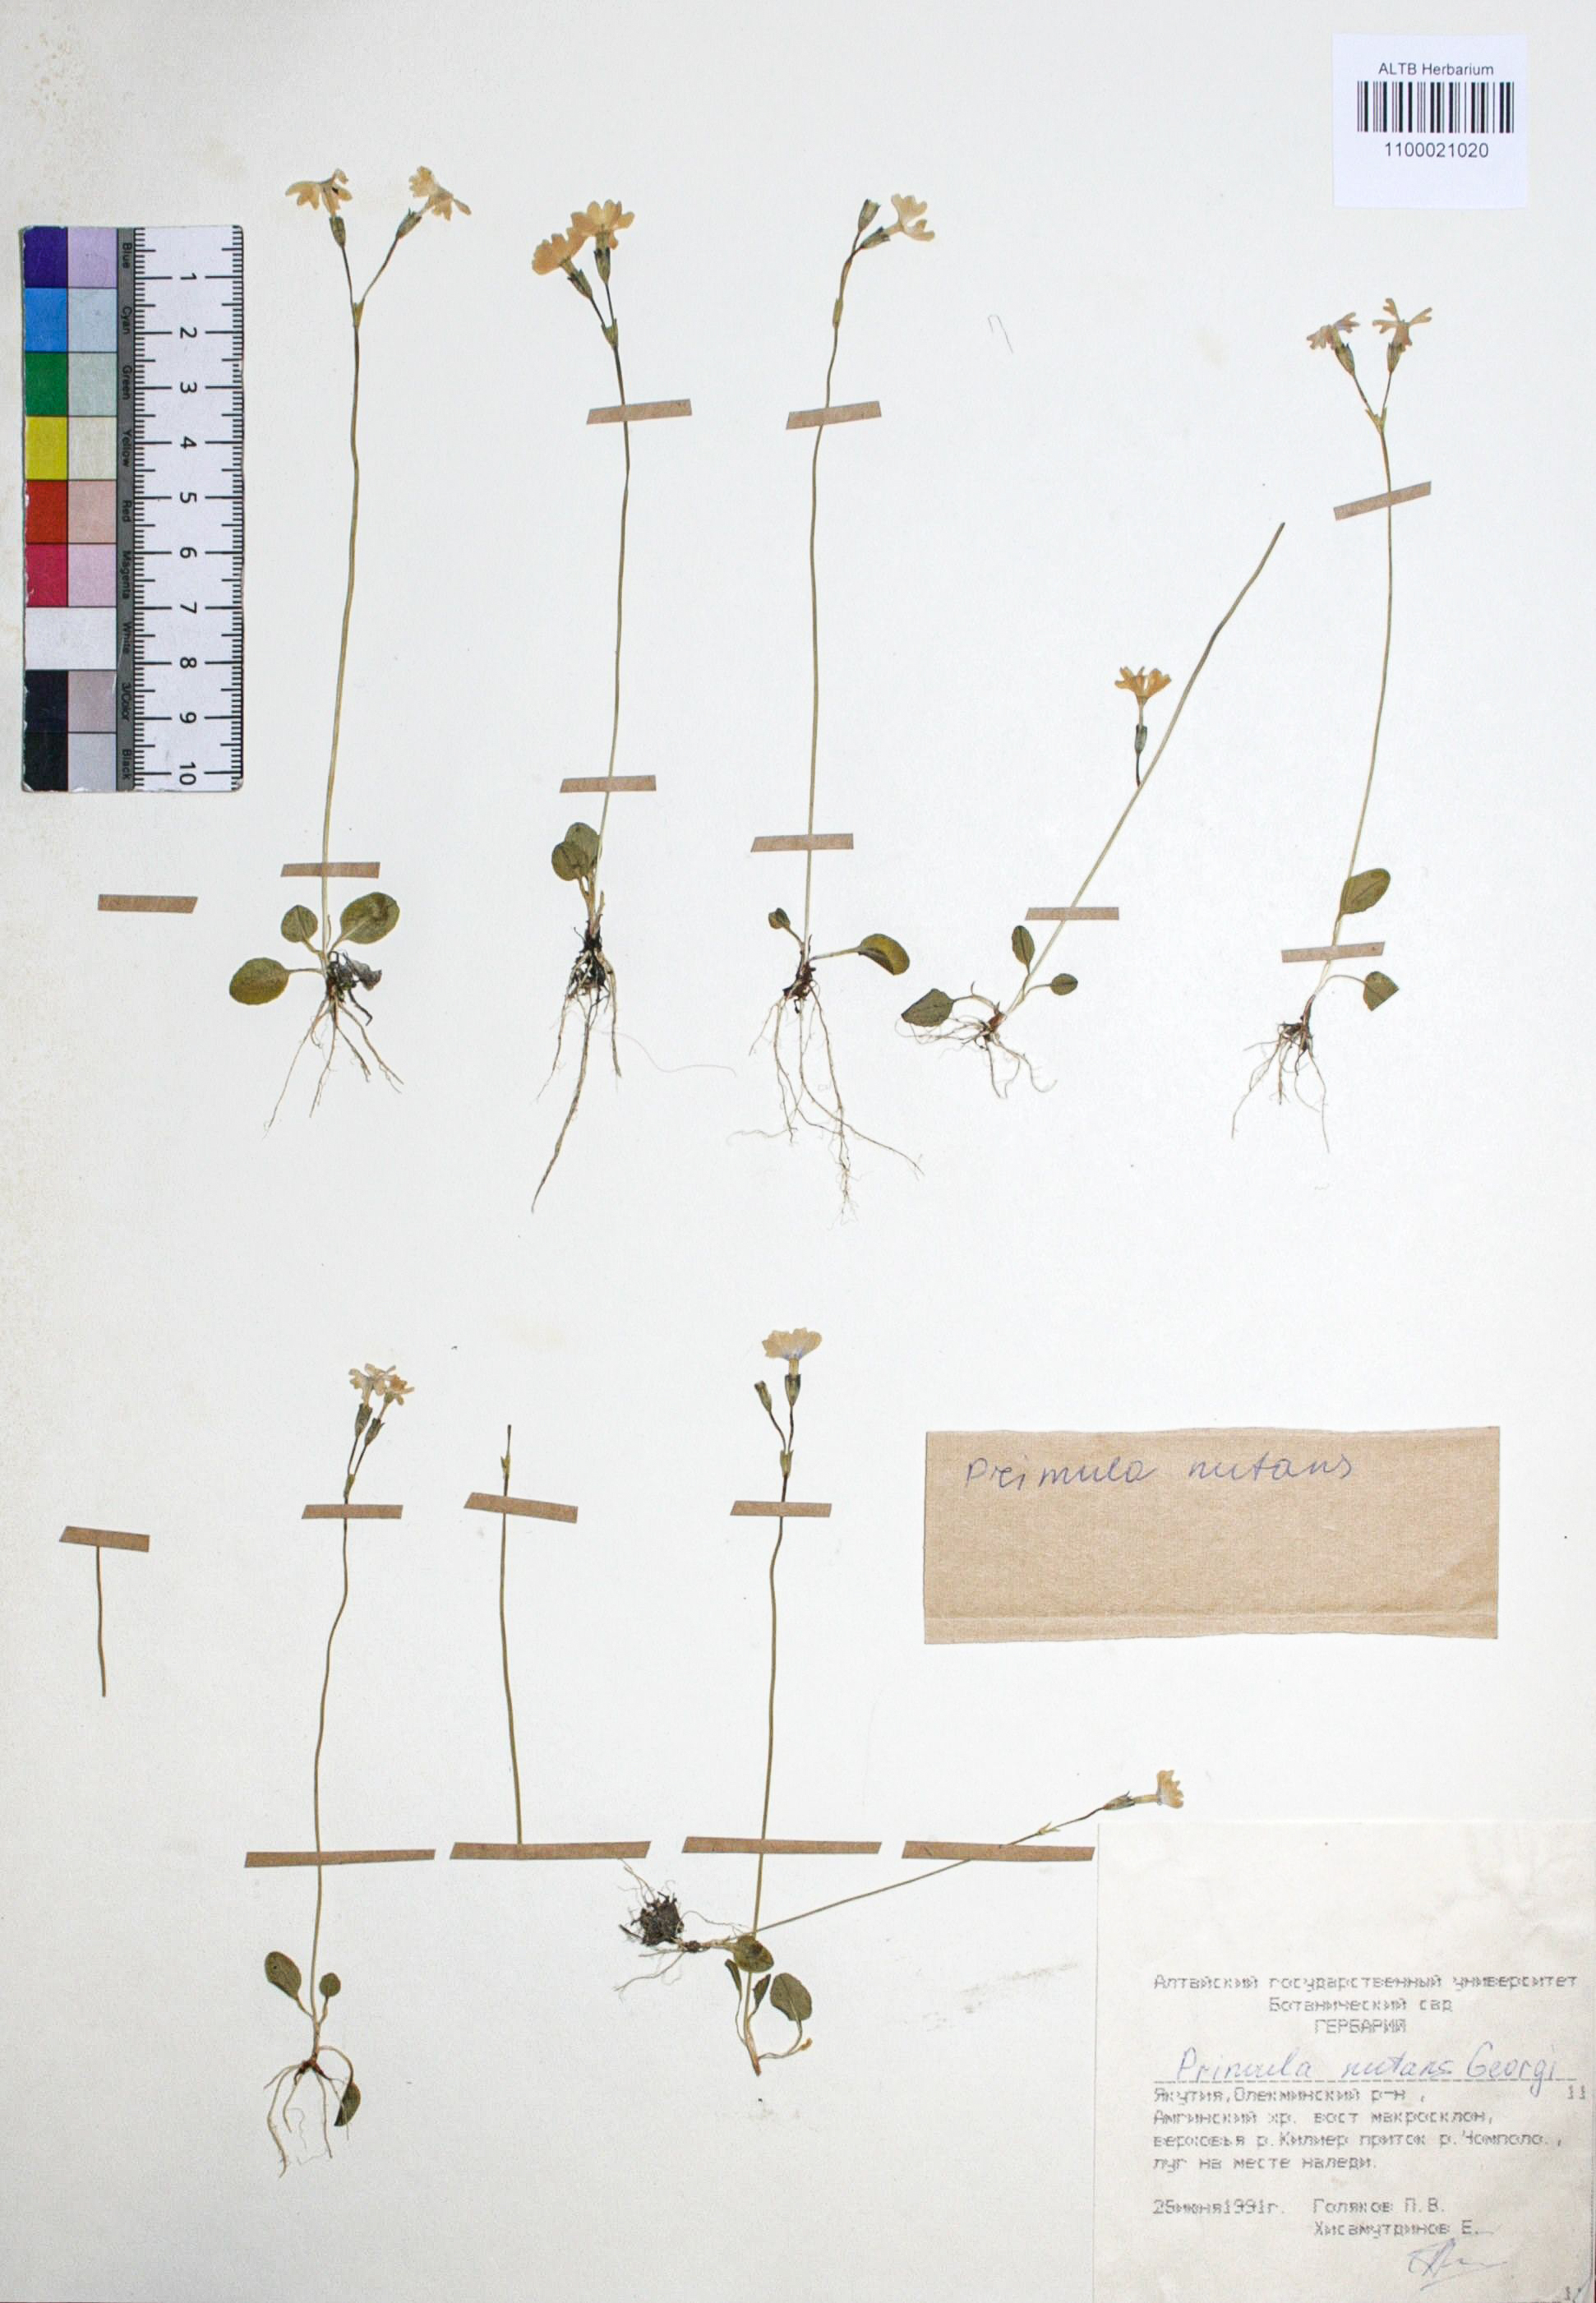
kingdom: Plantae
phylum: Tracheophyta
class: Magnoliopsida
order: Ericales
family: Primulaceae
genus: Primula
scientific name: Primula nutans
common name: Siberian primrose
